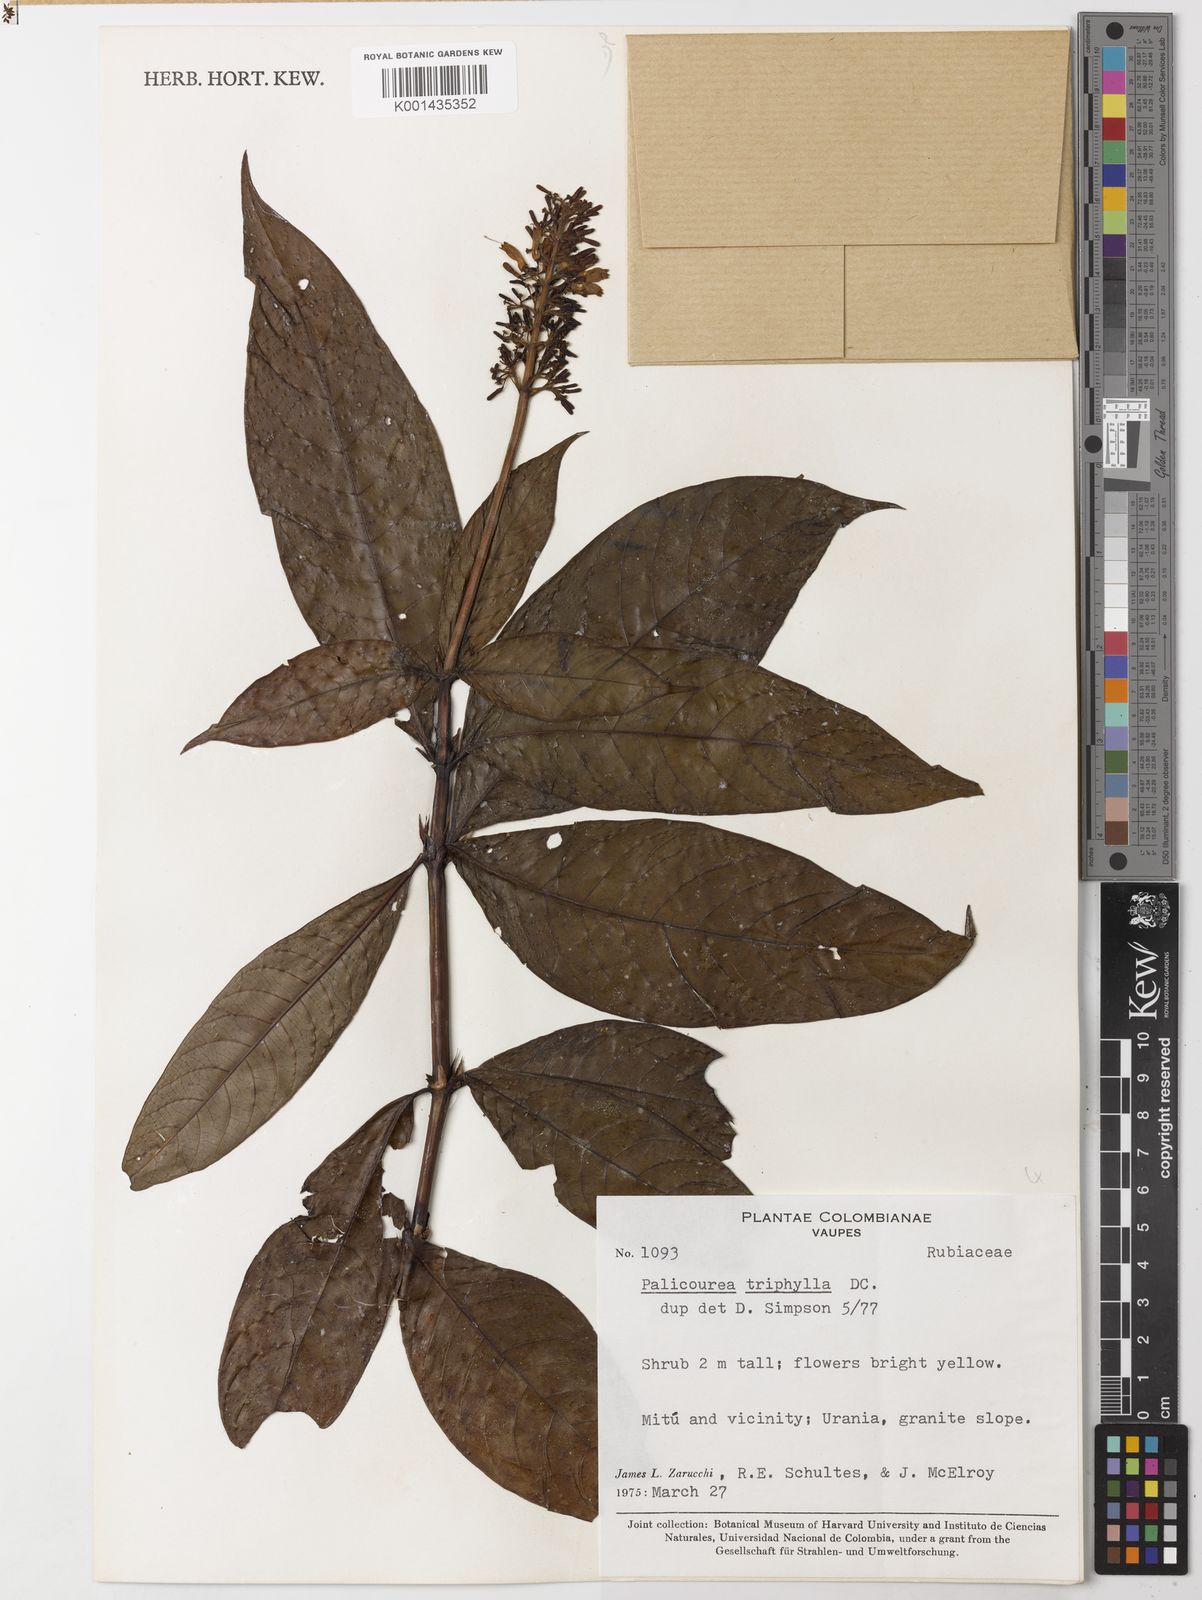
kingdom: Plantae
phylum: Tracheophyta
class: Magnoliopsida
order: Gentianales
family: Rubiaceae
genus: Palicourea
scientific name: Palicourea triphylla
